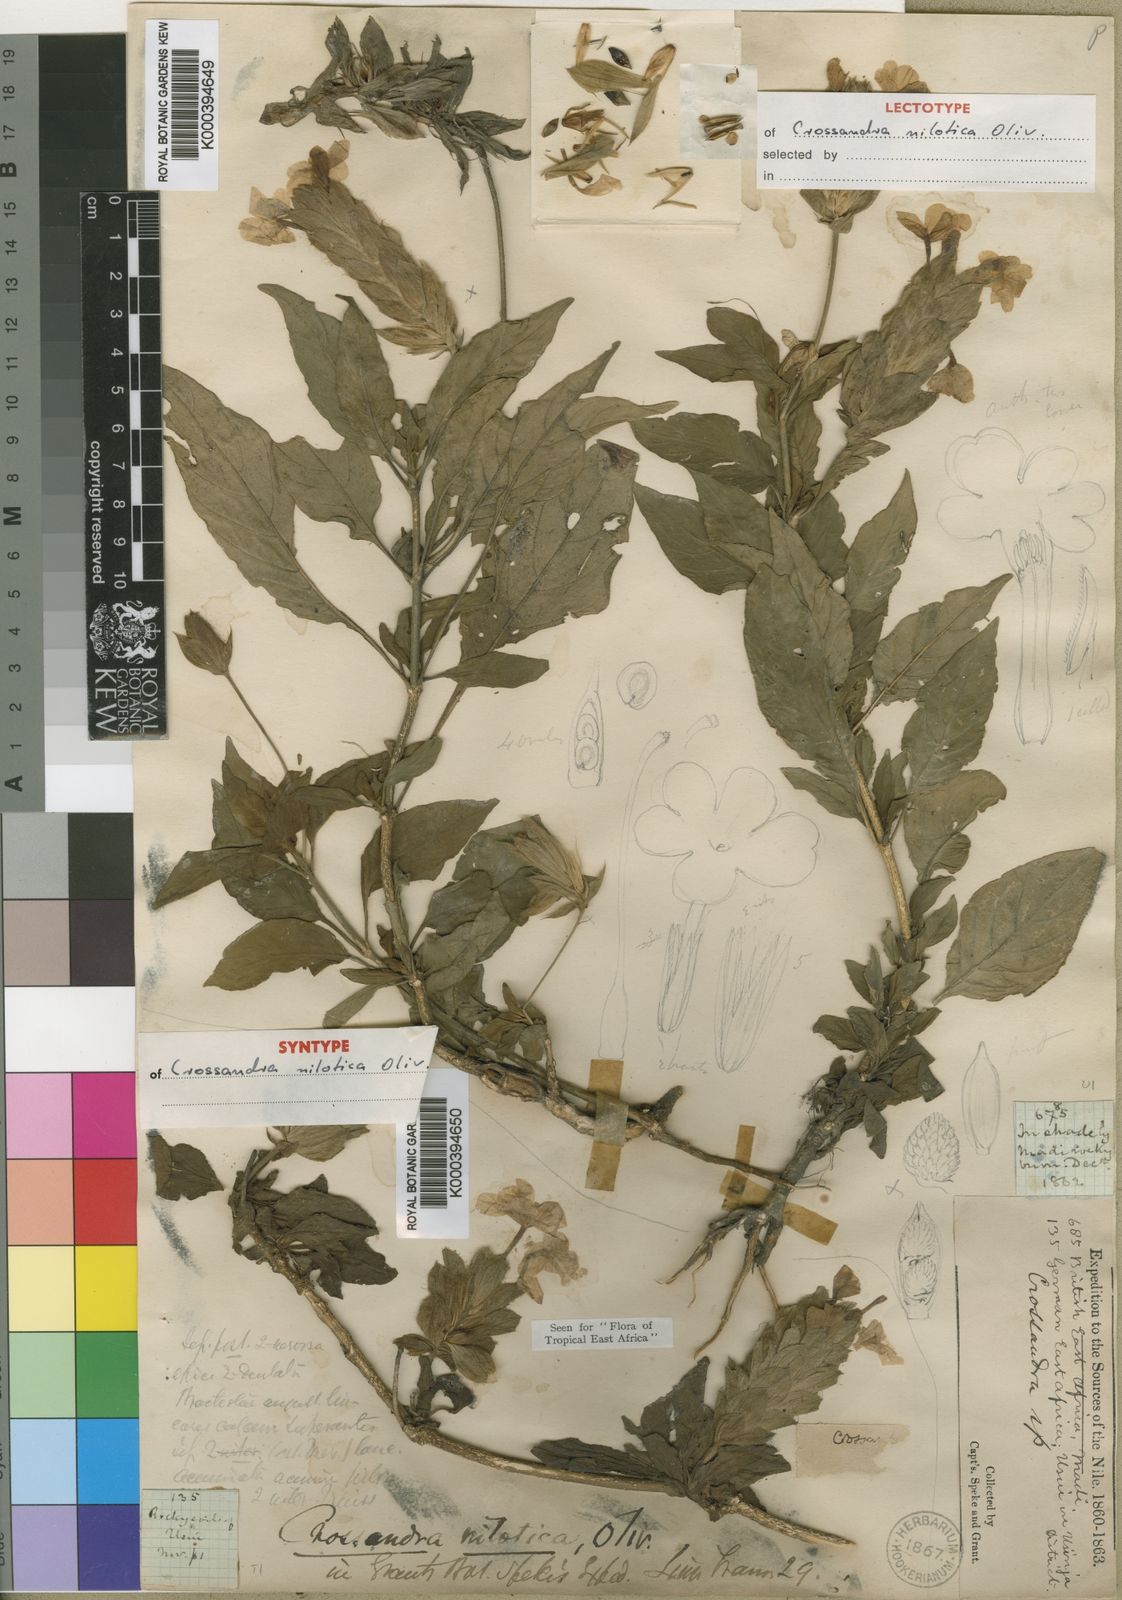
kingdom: Plantae
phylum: Tracheophyta
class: Magnoliopsida
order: Lamiales
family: Acanthaceae
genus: Crossandra
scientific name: Crossandra nilotica
